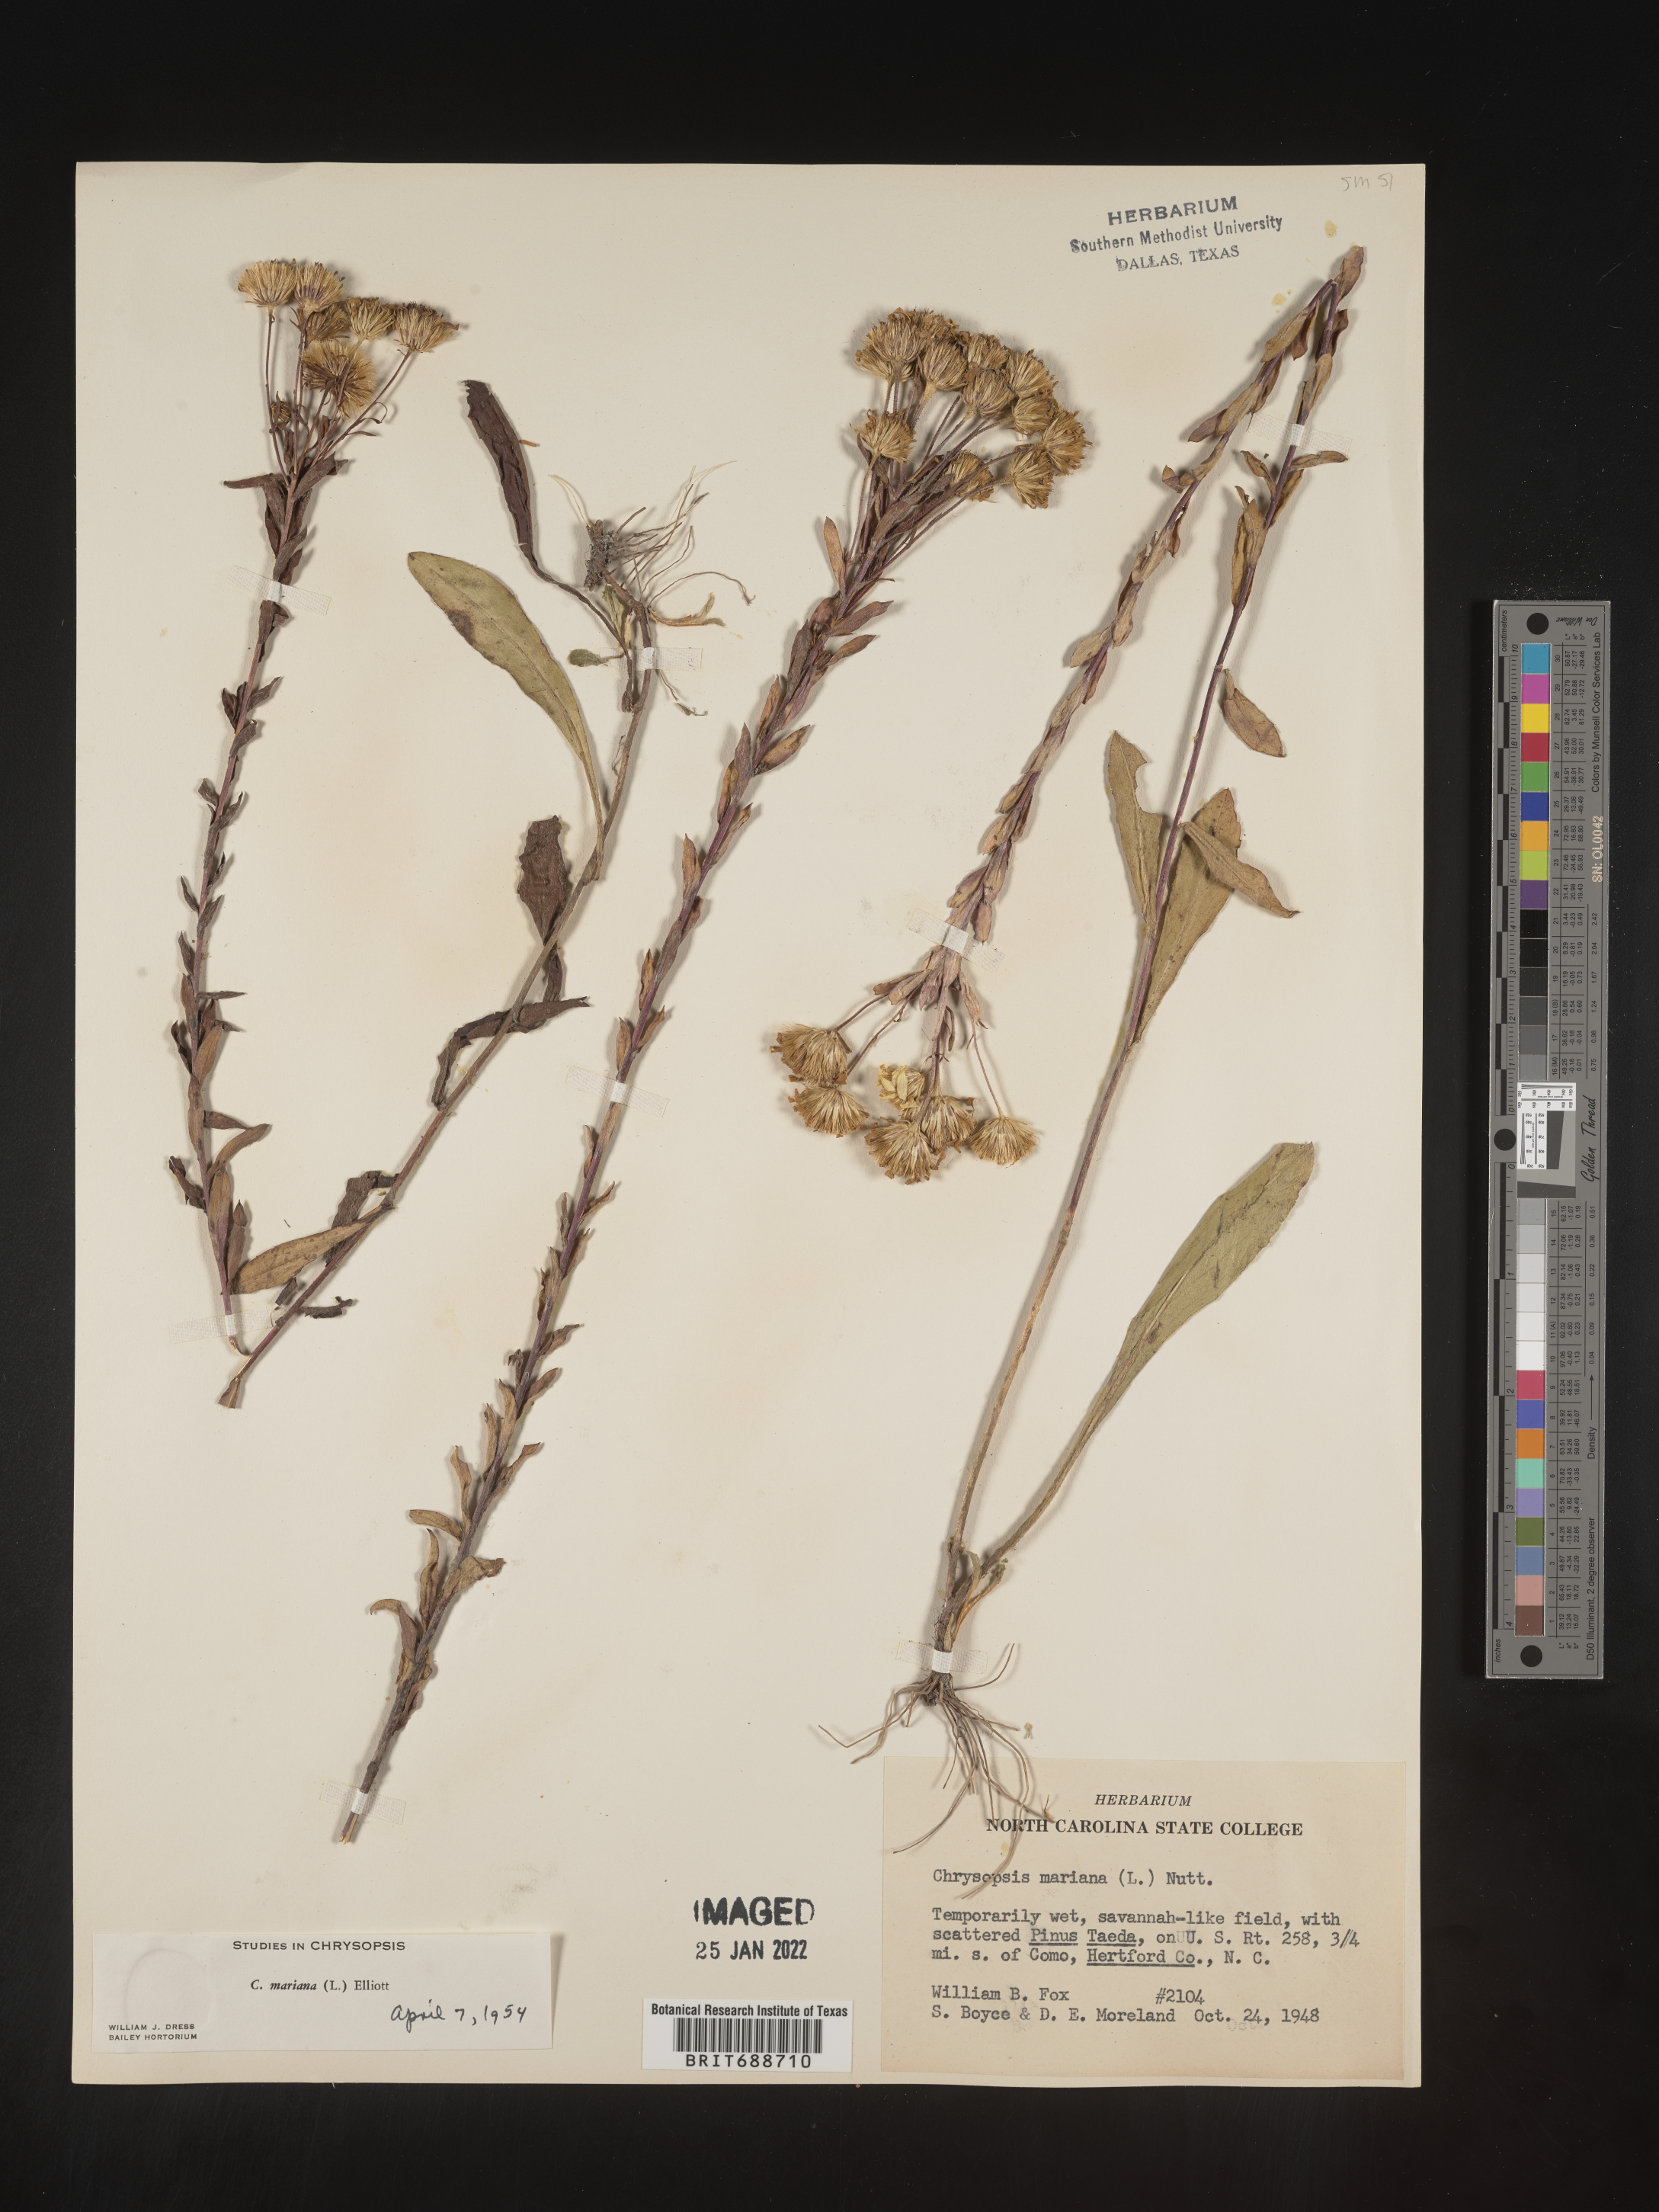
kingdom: Plantae
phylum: Tracheophyta
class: Magnoliopsida
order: Asterales
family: Asteraceae
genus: Chrysopsis
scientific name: Chrysopsis mariana
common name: Maryland golden-aster
